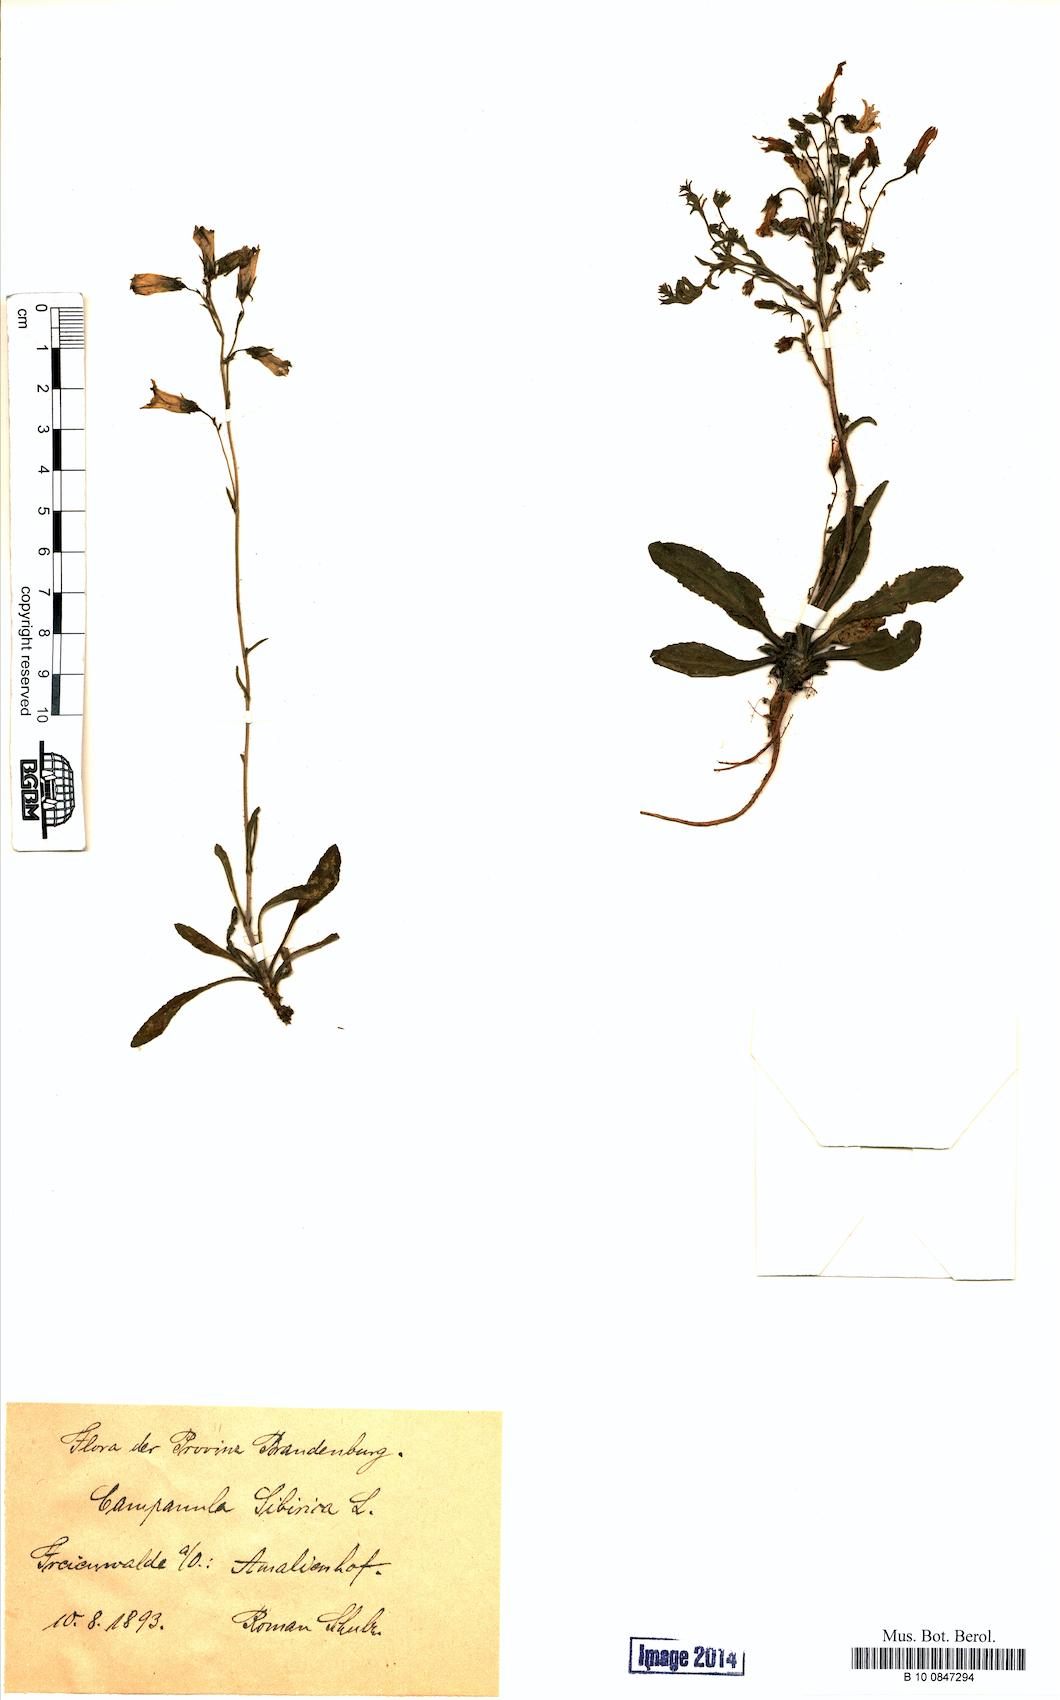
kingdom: Plantae
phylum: Tracheophyta
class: Magnoliopsida
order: Asterales
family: Campanulaceae
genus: Campanula
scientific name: Campanula sibirica
